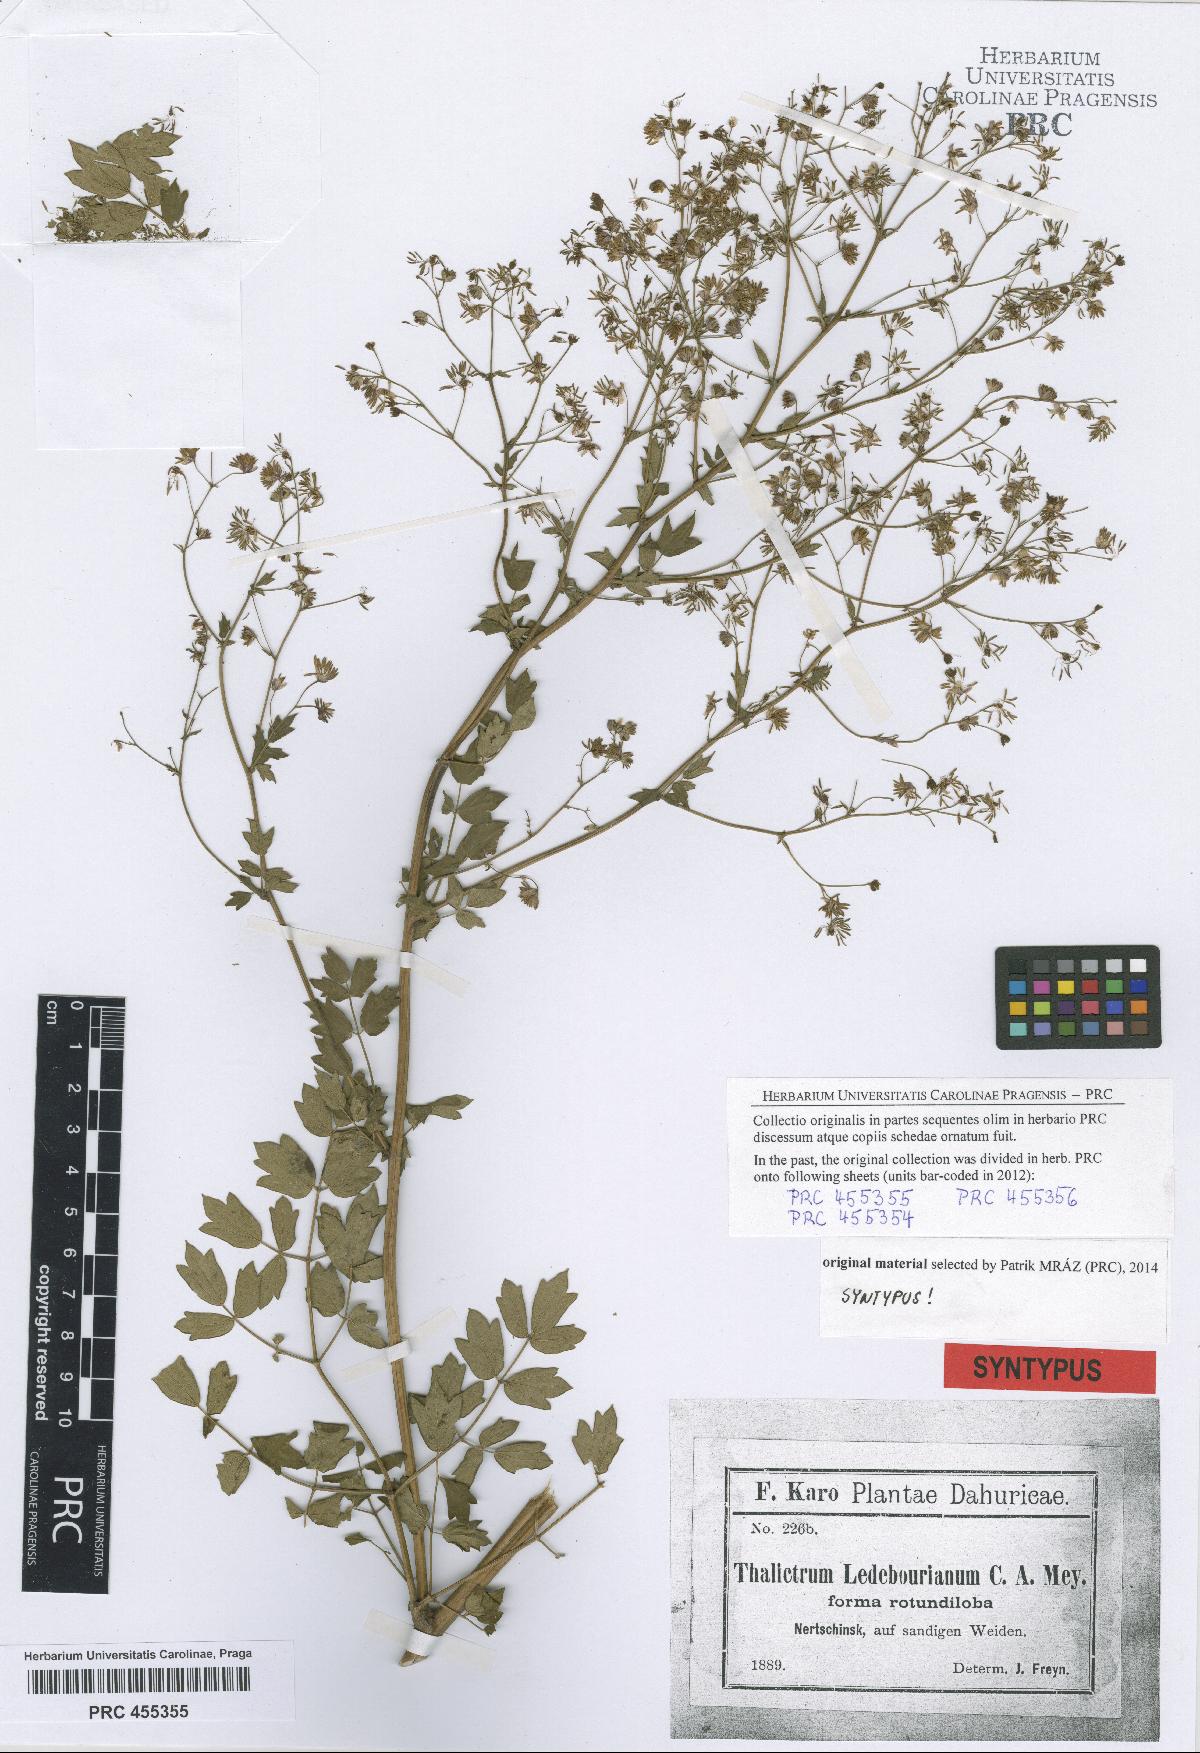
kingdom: Plantae
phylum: Tracheophyta
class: Magnoliopsida
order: Ranunculales
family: Ranunculaceae
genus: Thalictrum
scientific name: Thalictrum squarrosum
